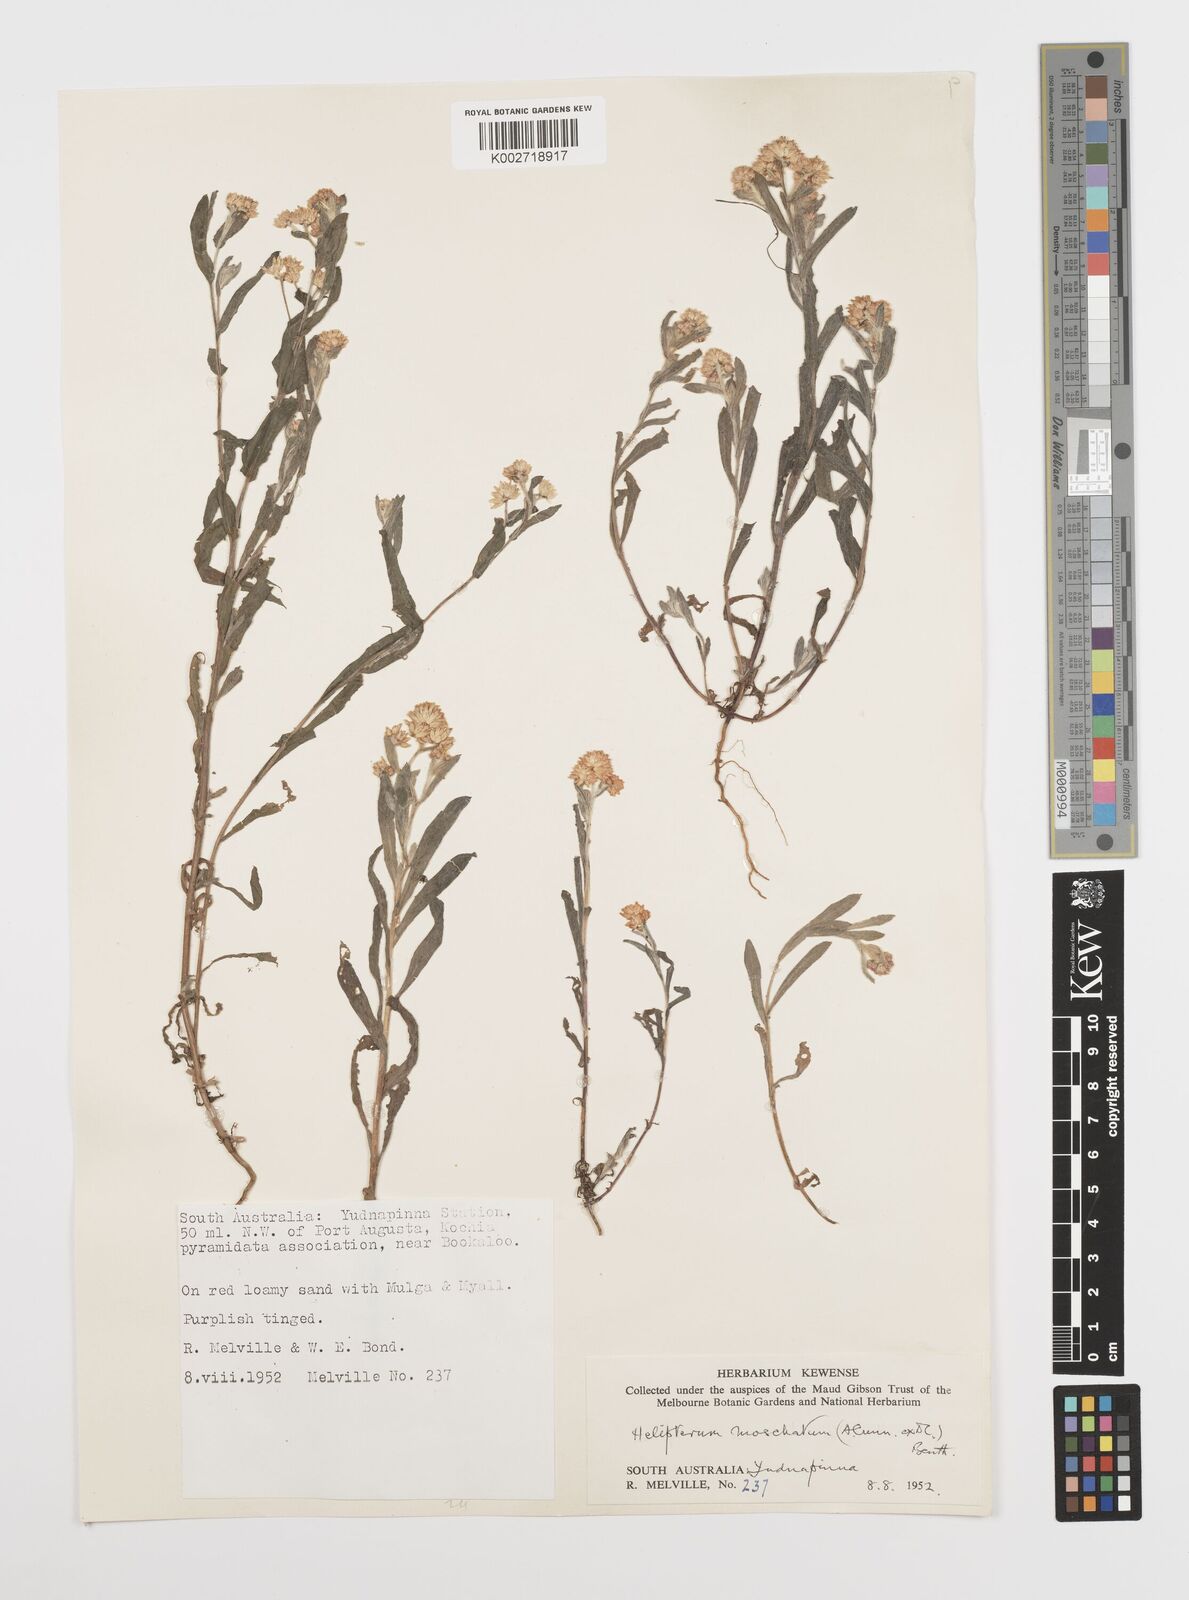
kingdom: Plantae
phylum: Tracheophyta
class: Magnoliopsida
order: Asterales
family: Asteraceae
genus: Rhodanthe
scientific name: Rhodanthe moschata
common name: Musk sunray
